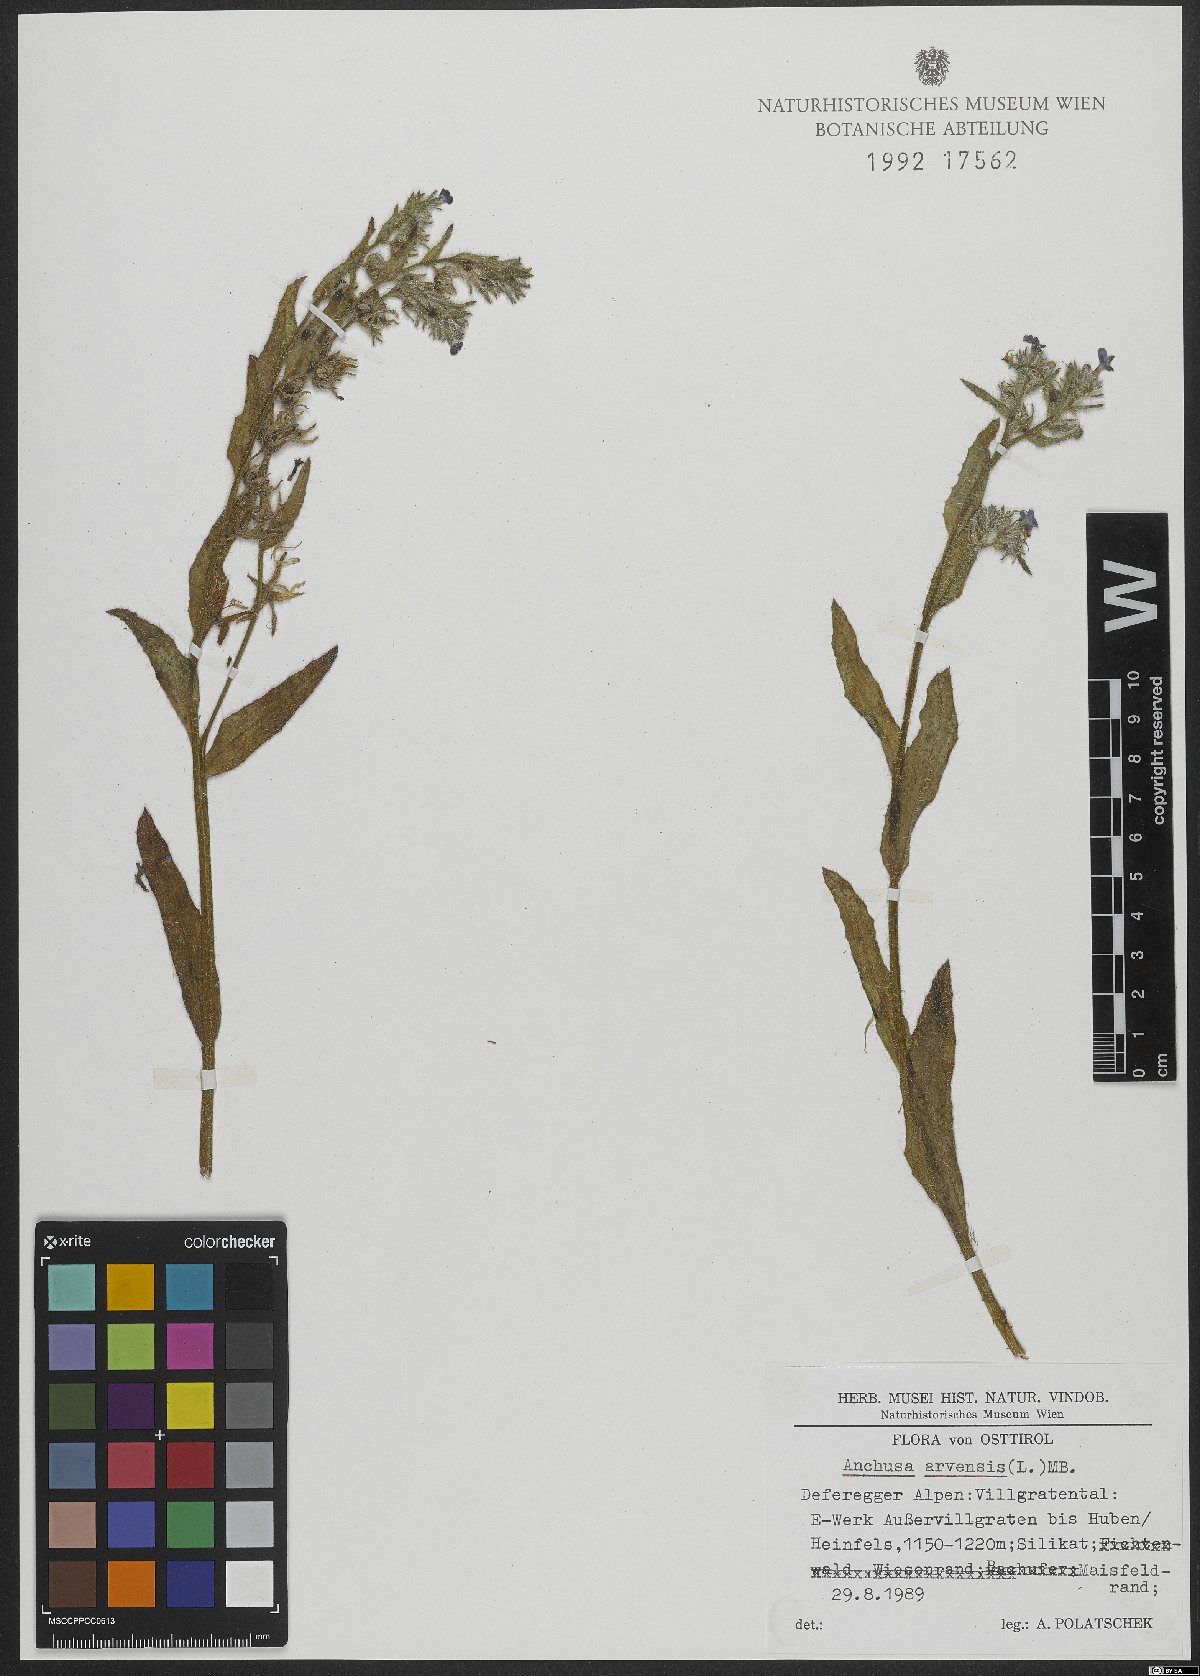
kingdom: Plantae
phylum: Tracheophyta
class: Magnoliopsida
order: Boraginales
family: Boraginaceae
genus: Lycopsis
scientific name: Lycopsis arvensis
